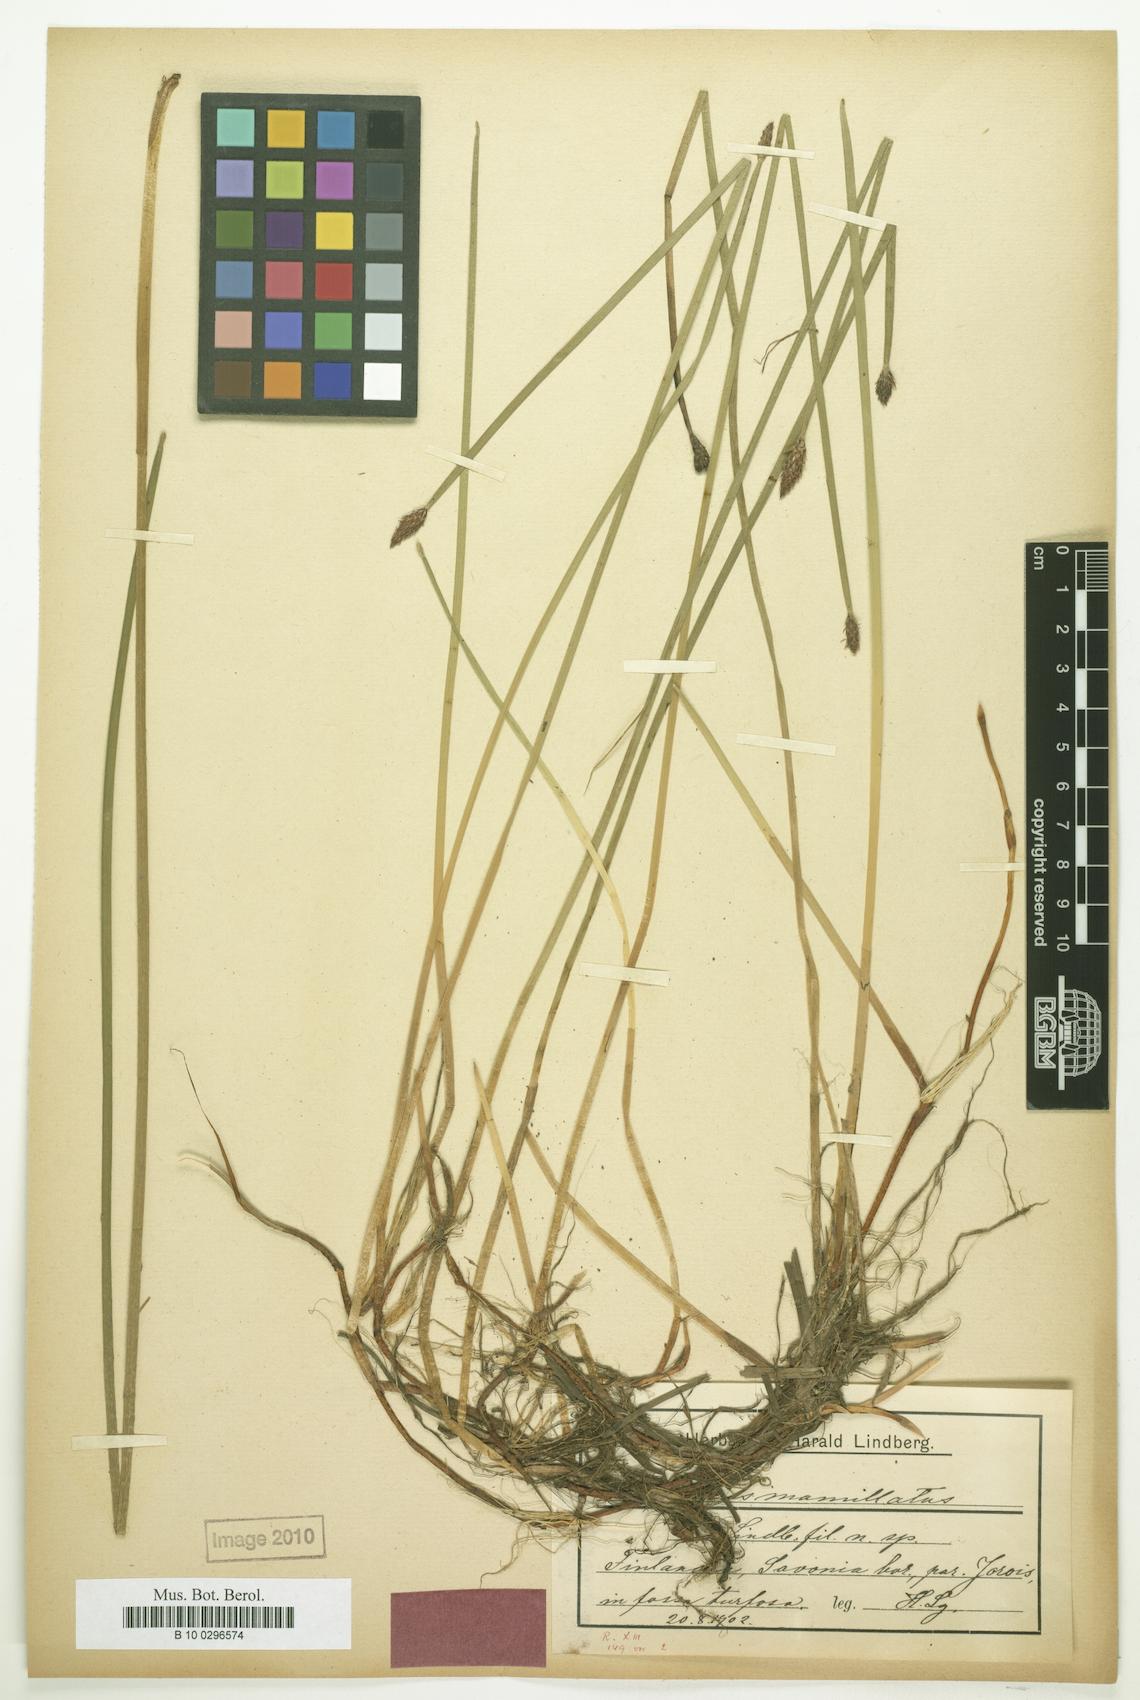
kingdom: Plantae
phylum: Tracheophyta
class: Liliopsida
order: Poales
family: Cyperaceae
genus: Eleocharis
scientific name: Eleocharis mamillata
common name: Northern spike-rush
